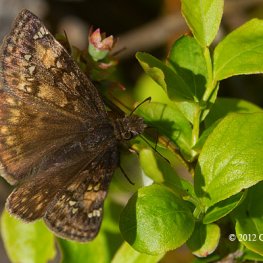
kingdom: Animalia
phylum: Arthropoda
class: Insecta
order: Lepidoptera
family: Hesperiidae
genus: Gesta
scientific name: Gesta
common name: Juvenal's Duskywing
